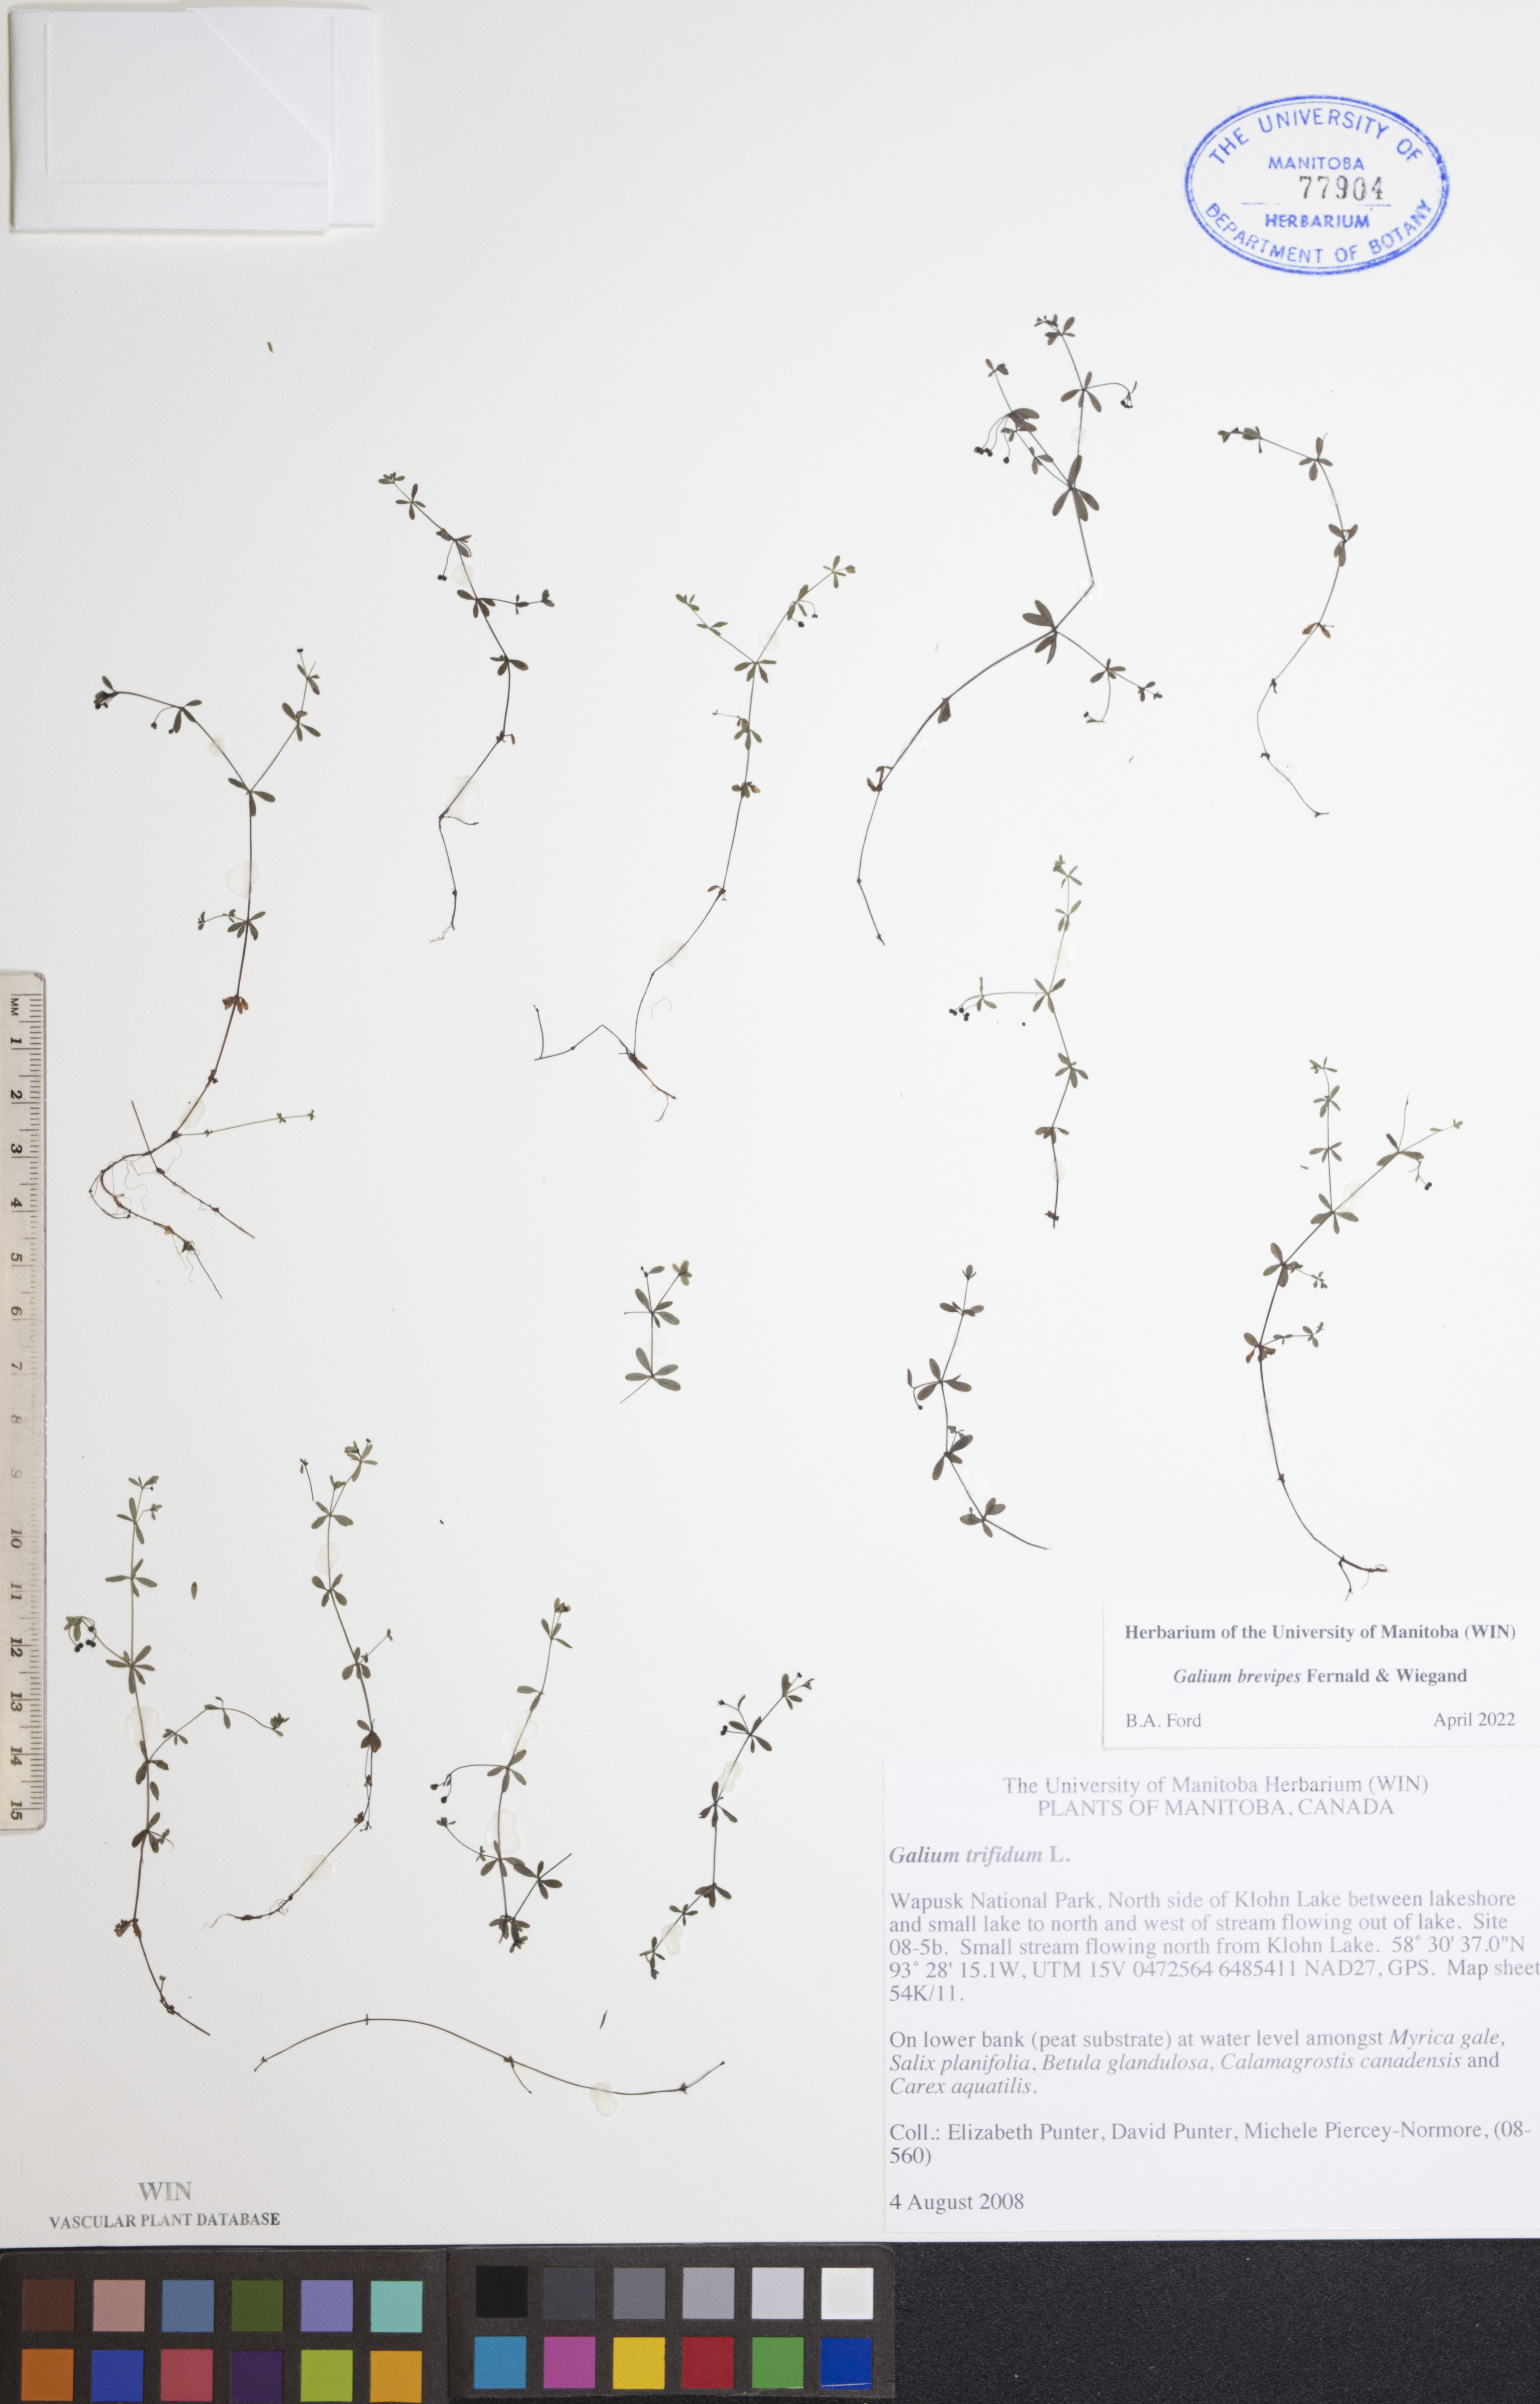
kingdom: Plantae
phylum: Tracheophyta
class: Magnoliopsida
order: Gentianales
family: Rubiaceae
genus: Galium
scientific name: Galium domingense
